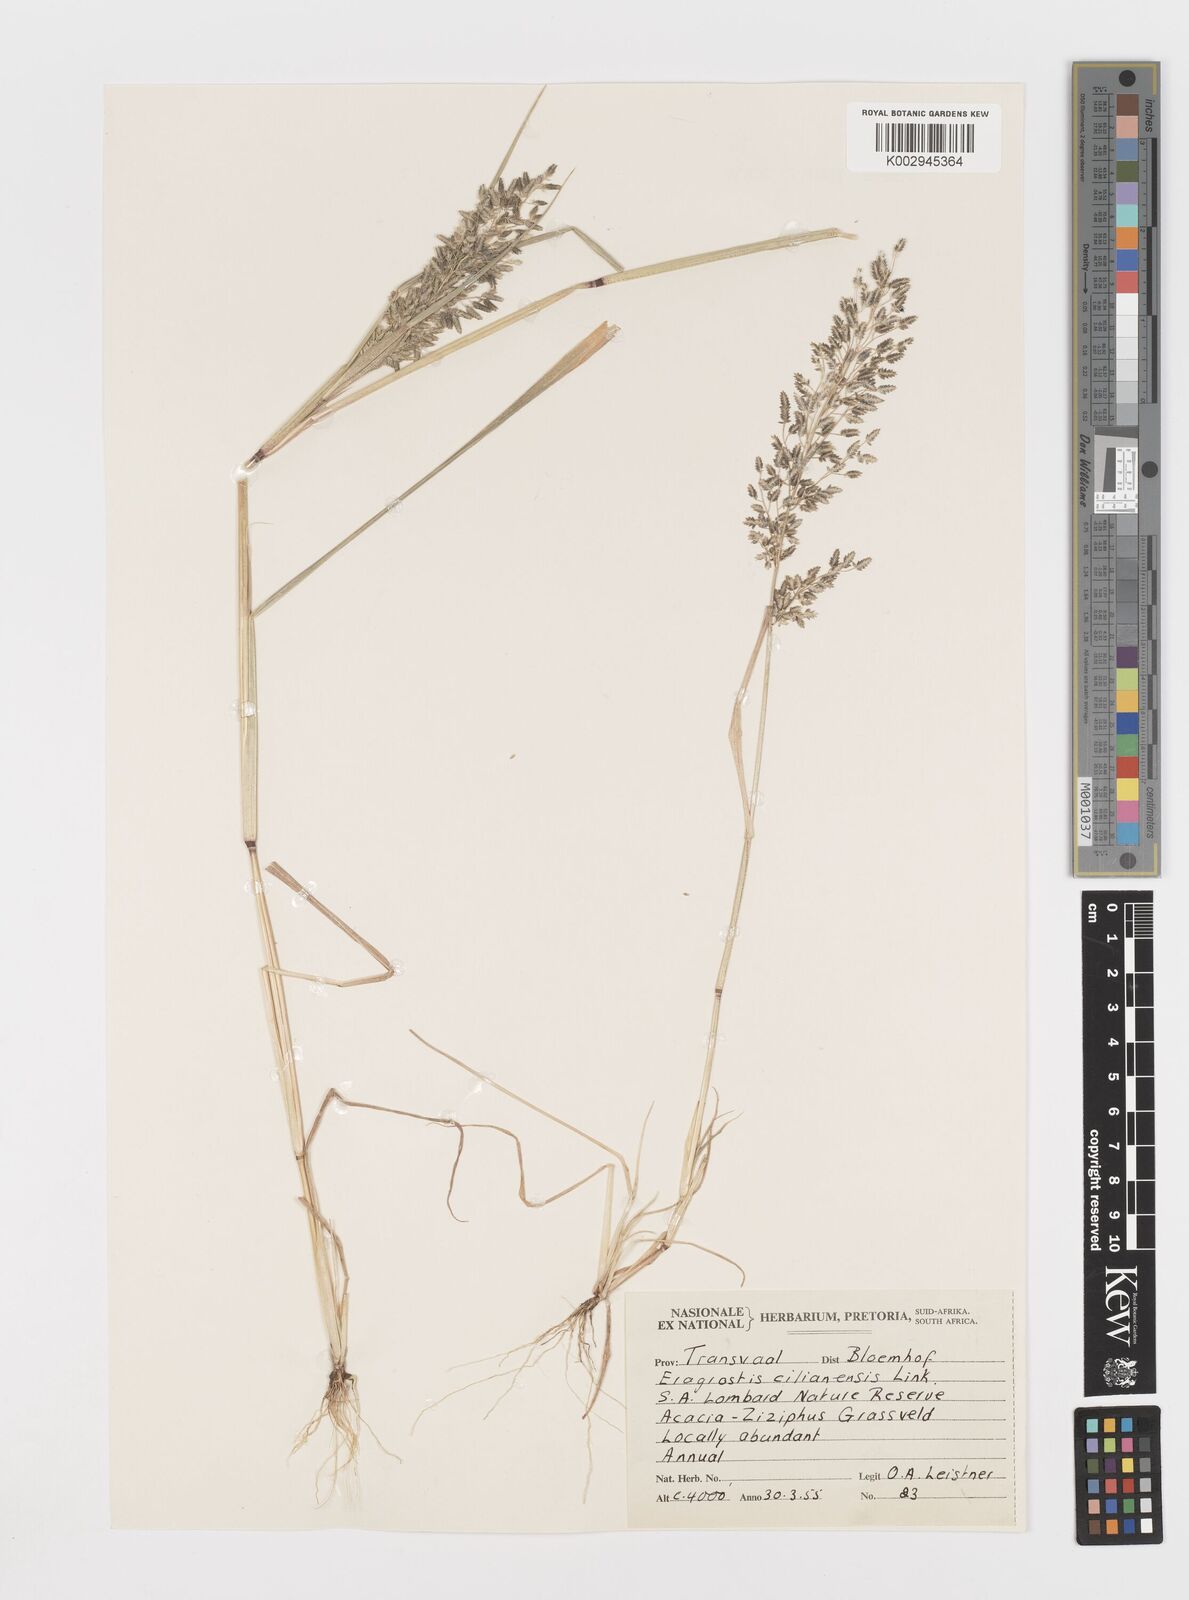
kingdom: Plantae
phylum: Tracheophyta
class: Liliopsida
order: Poales
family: Poaceae
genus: Eragrostis
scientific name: Eragrostis cilianensis
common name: Stinkgrass
